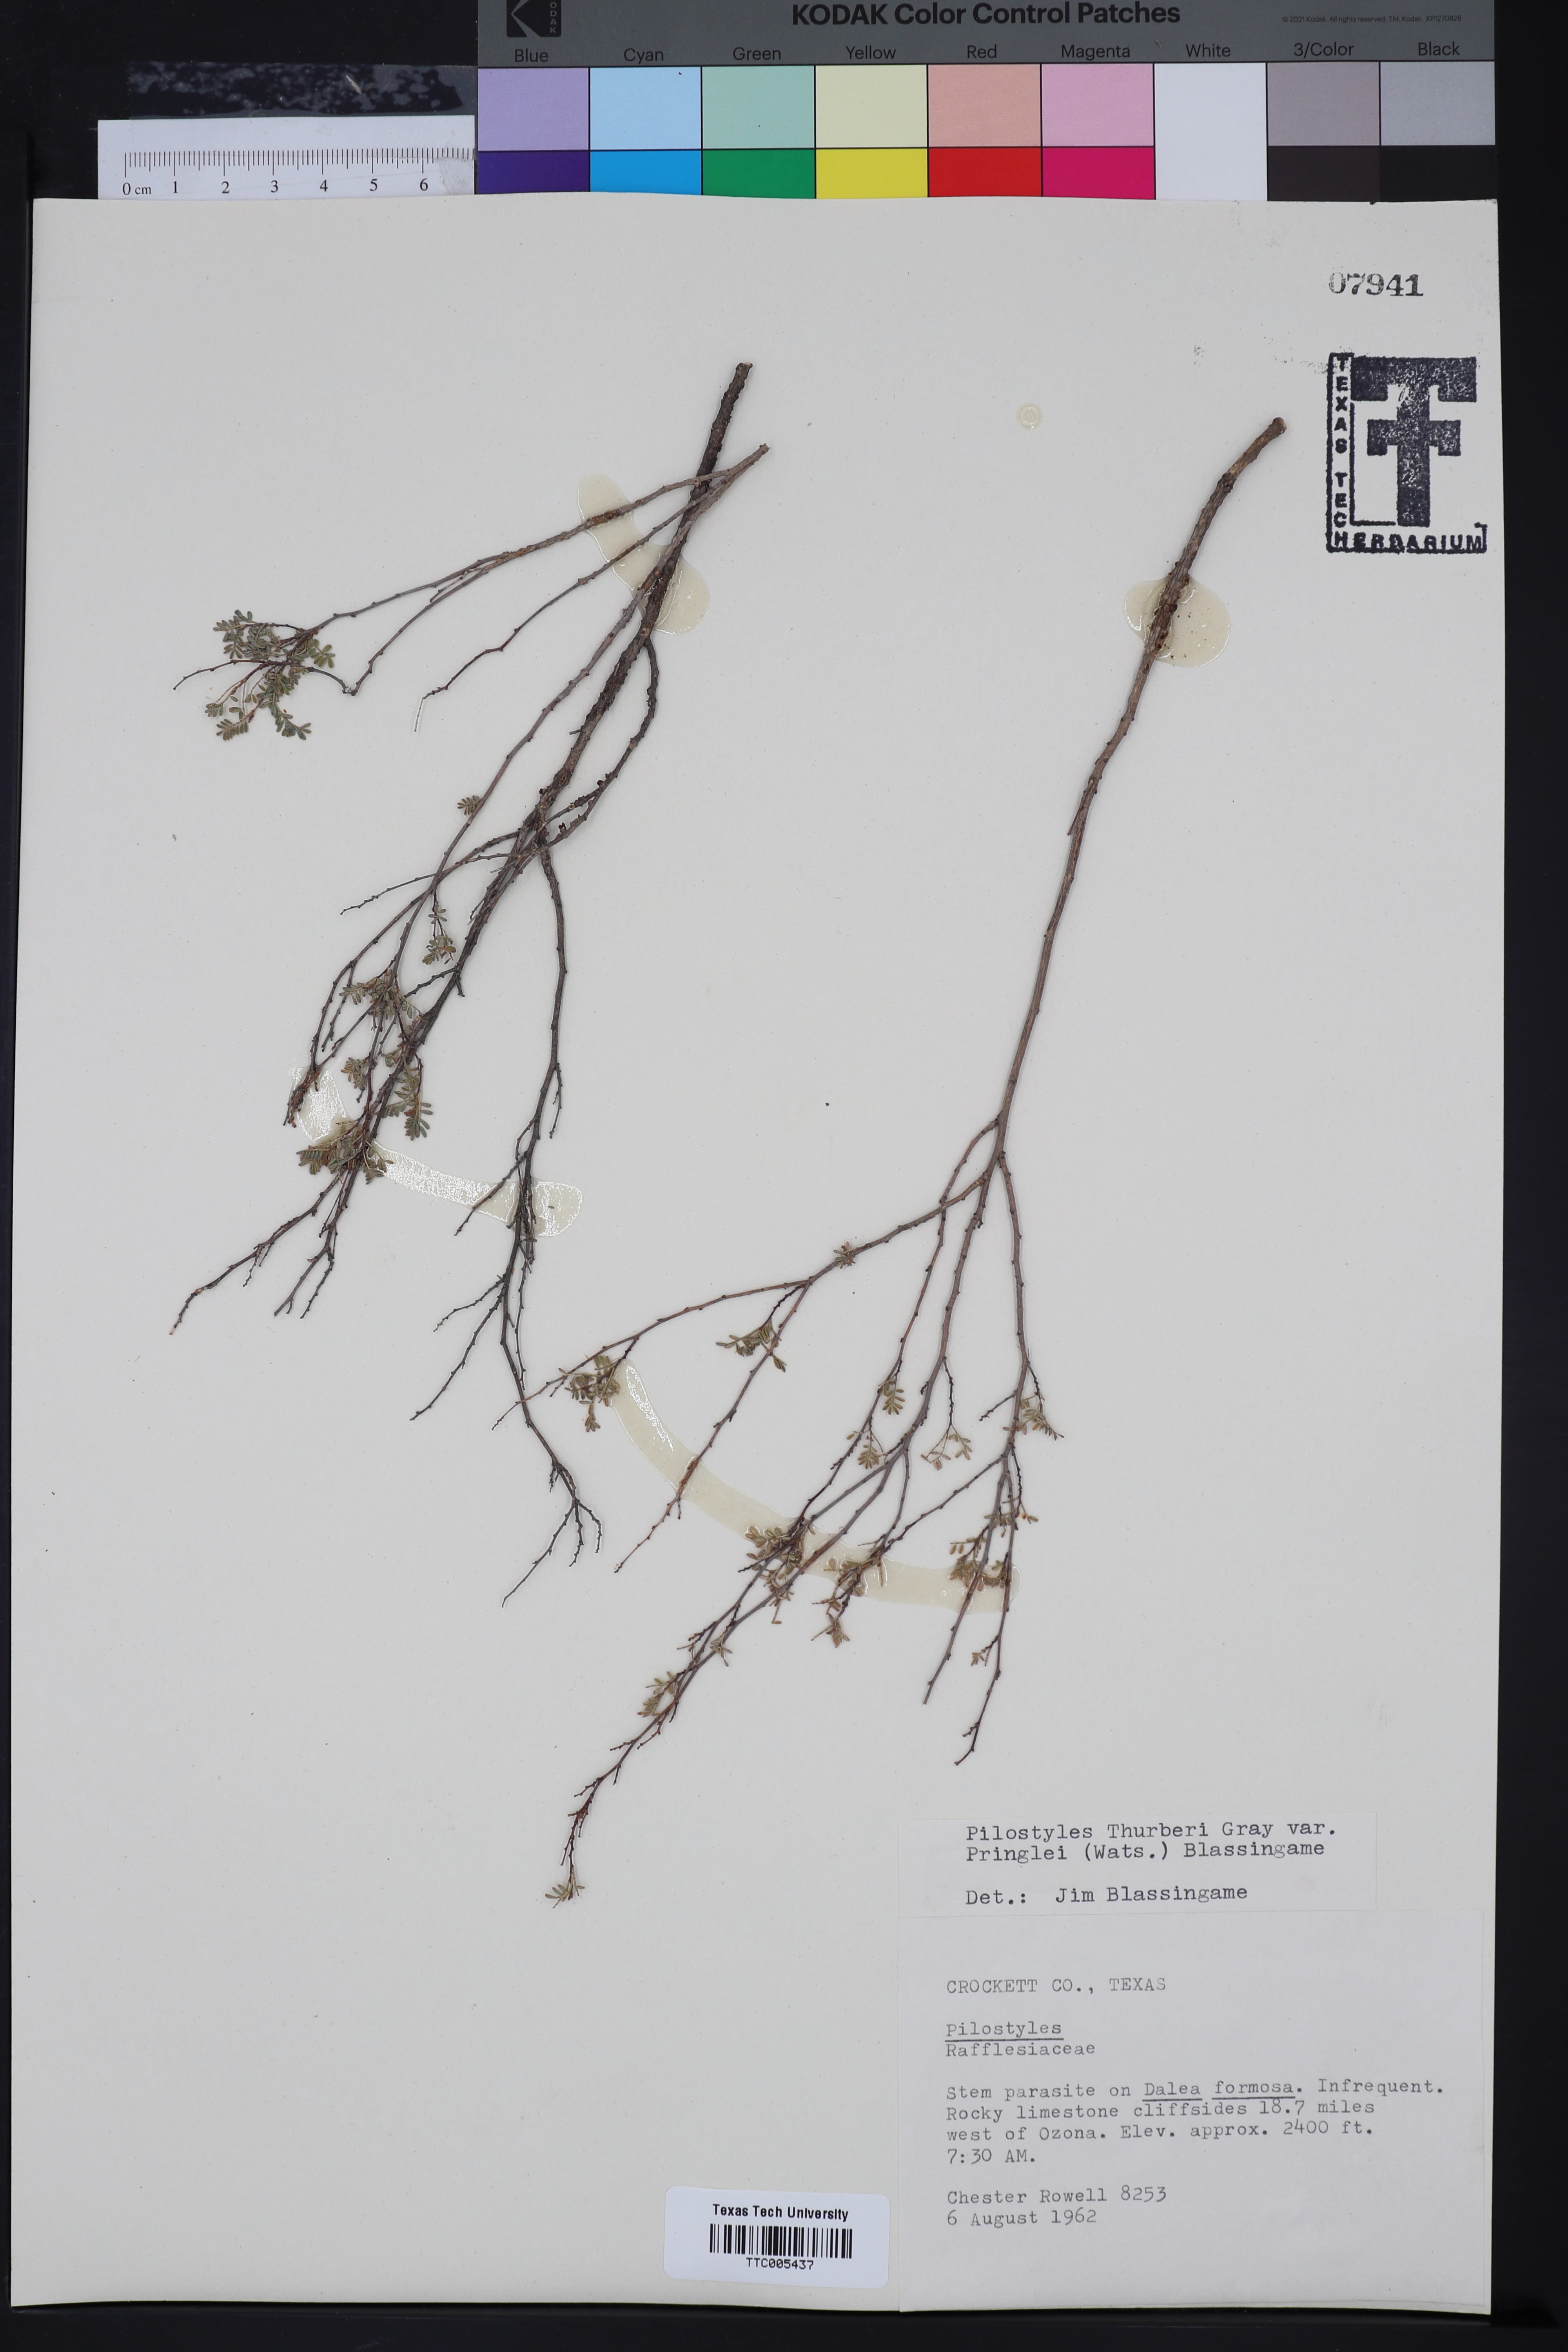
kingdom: Plantae
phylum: Tracheophyta
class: Magnoliopsida
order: Cucurbitales
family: Apodanthaceae
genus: Pilostyles
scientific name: Pilostyles thurberi
